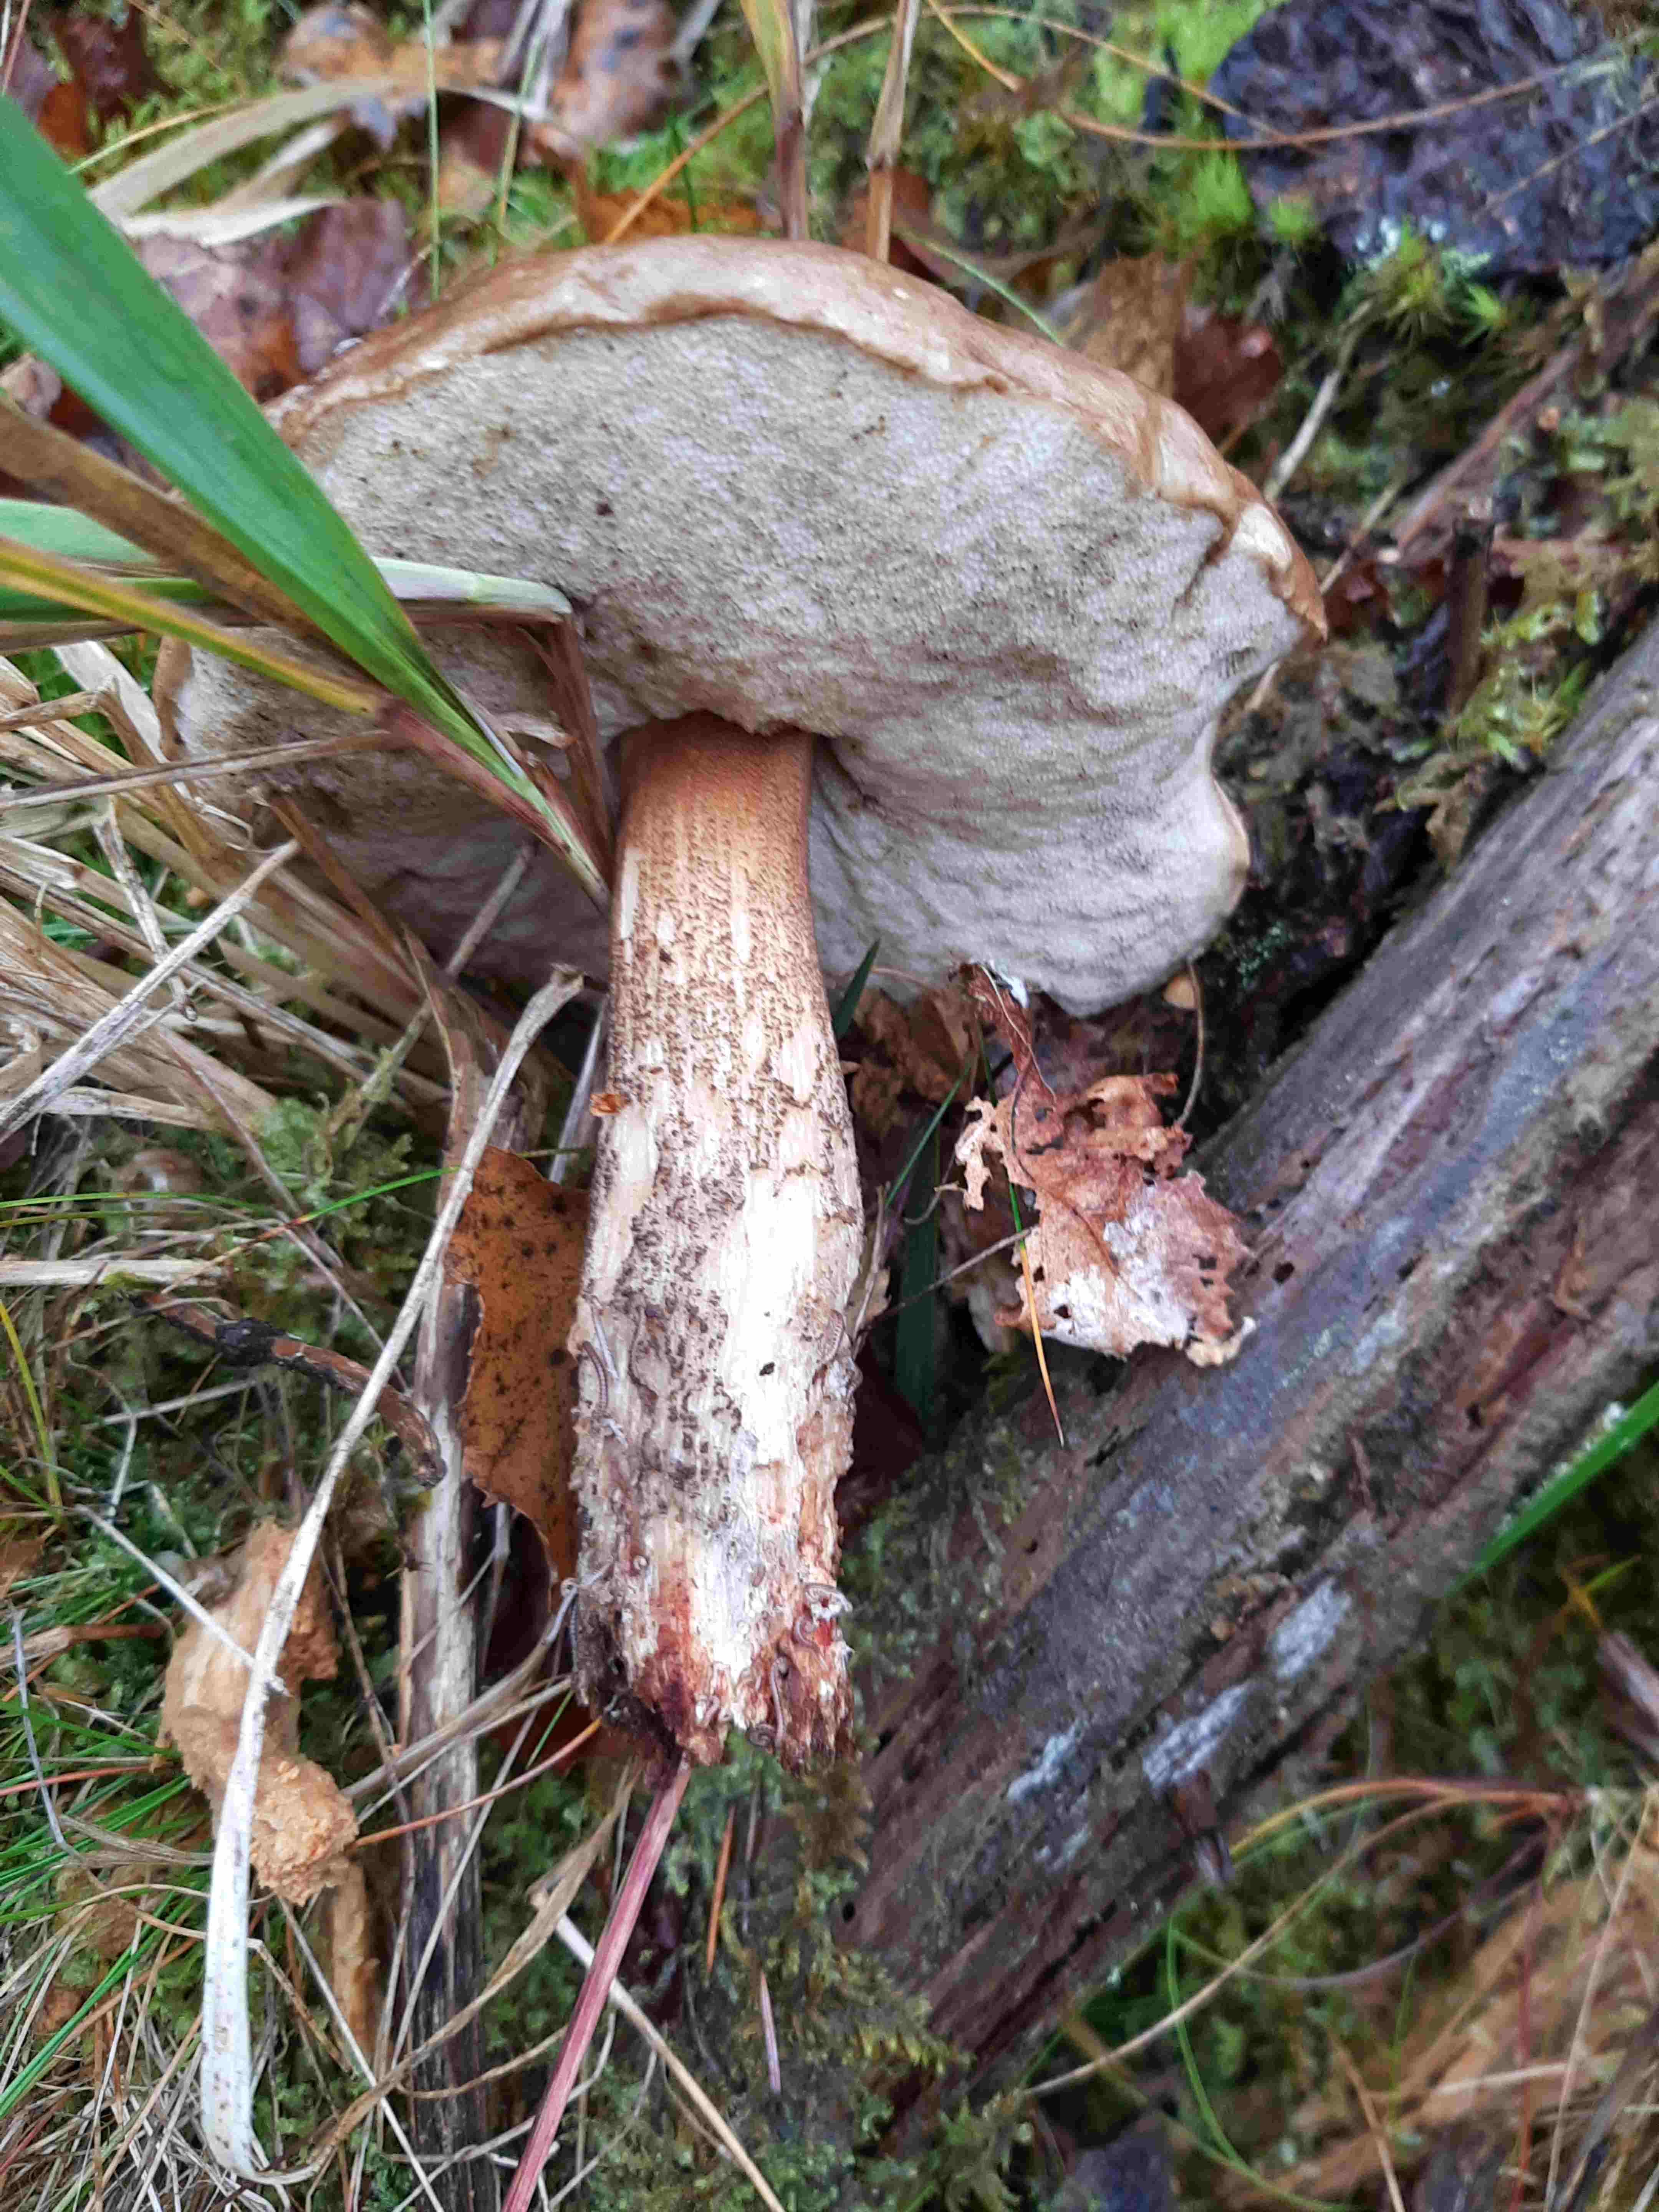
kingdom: Fungi
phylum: Basidiomycota
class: Agaricomycetes
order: Boletales
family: Boletaceae
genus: Leccinum
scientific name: Leccinum
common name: skælrørhat
